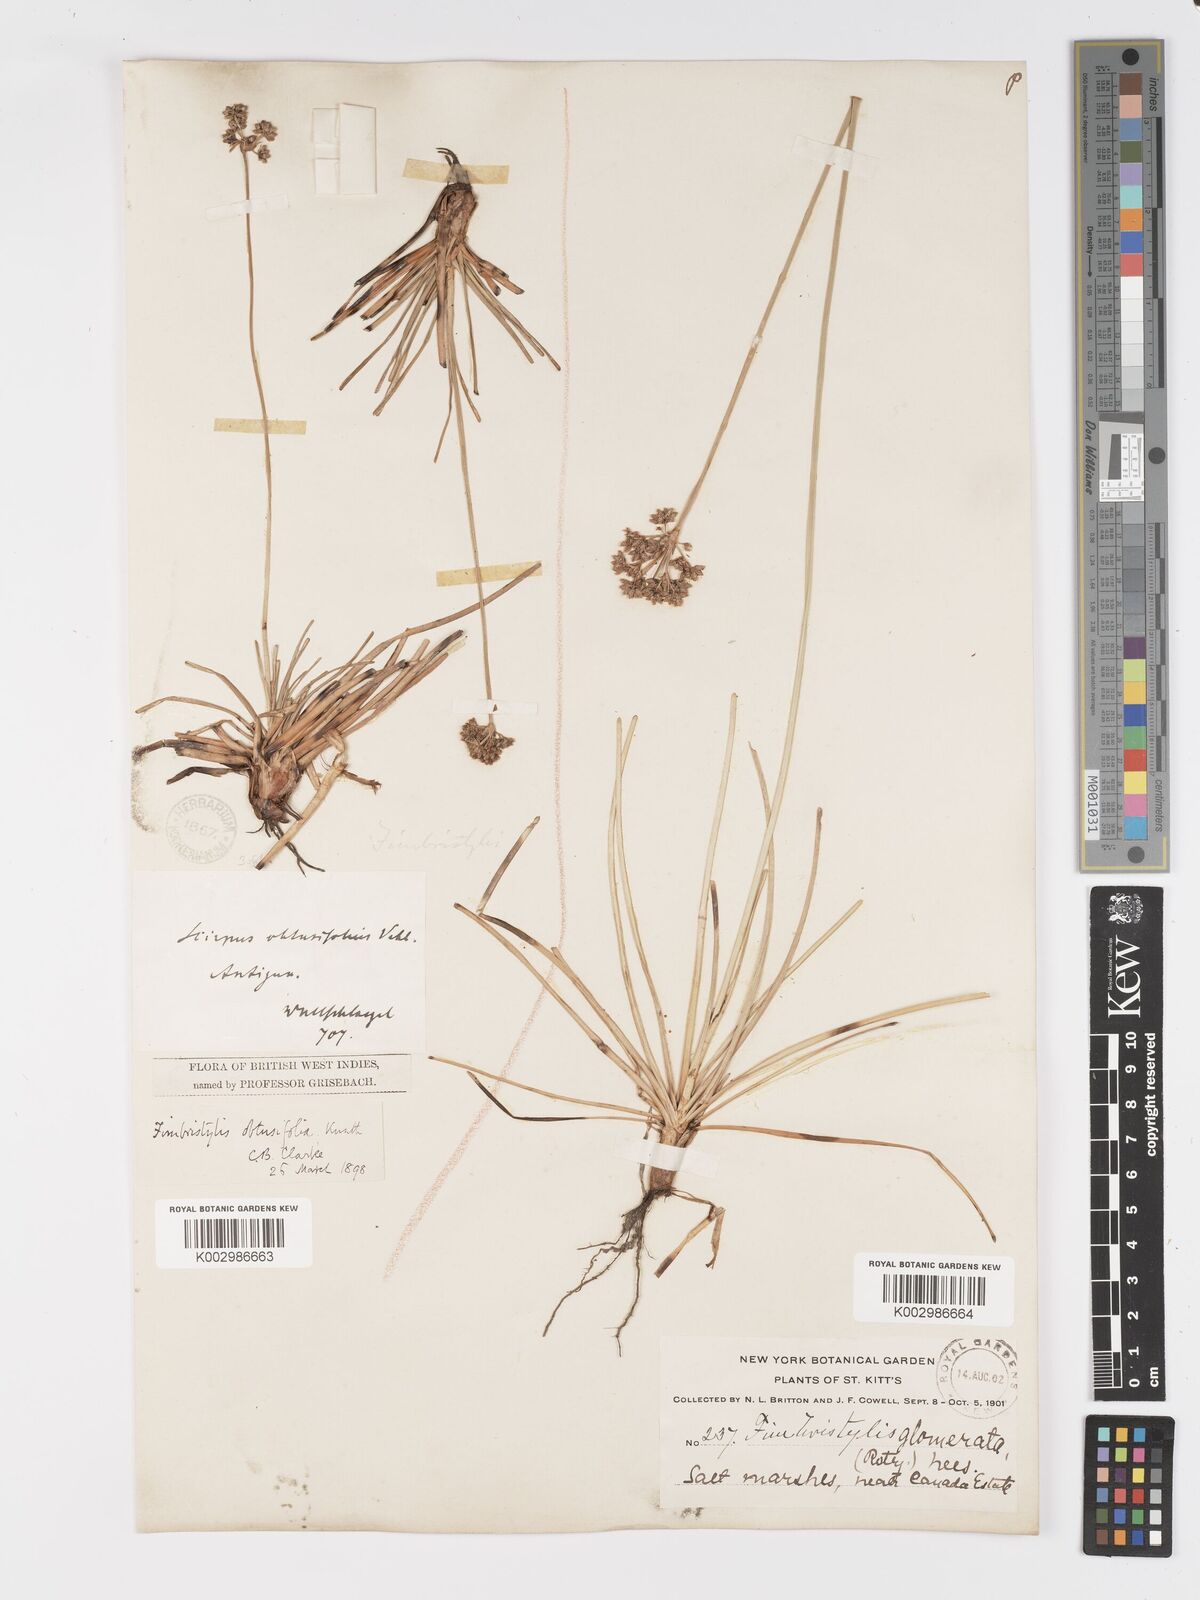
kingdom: Plantae
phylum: Tracheophyta
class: Liliopsida
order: Poales
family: Cyperaceae
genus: Fimbristylis
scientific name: Fimbristylis cymosa
